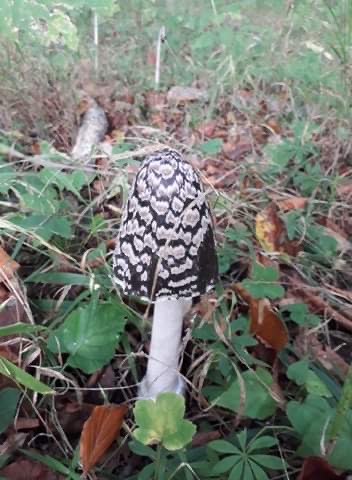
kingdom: Fungi
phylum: Basidiomycota
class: Agaricomycetes
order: Agaricales
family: Psathyrellaceae
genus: Coprinopsis
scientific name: Coprinopsis picacea
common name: skade-blækhat
